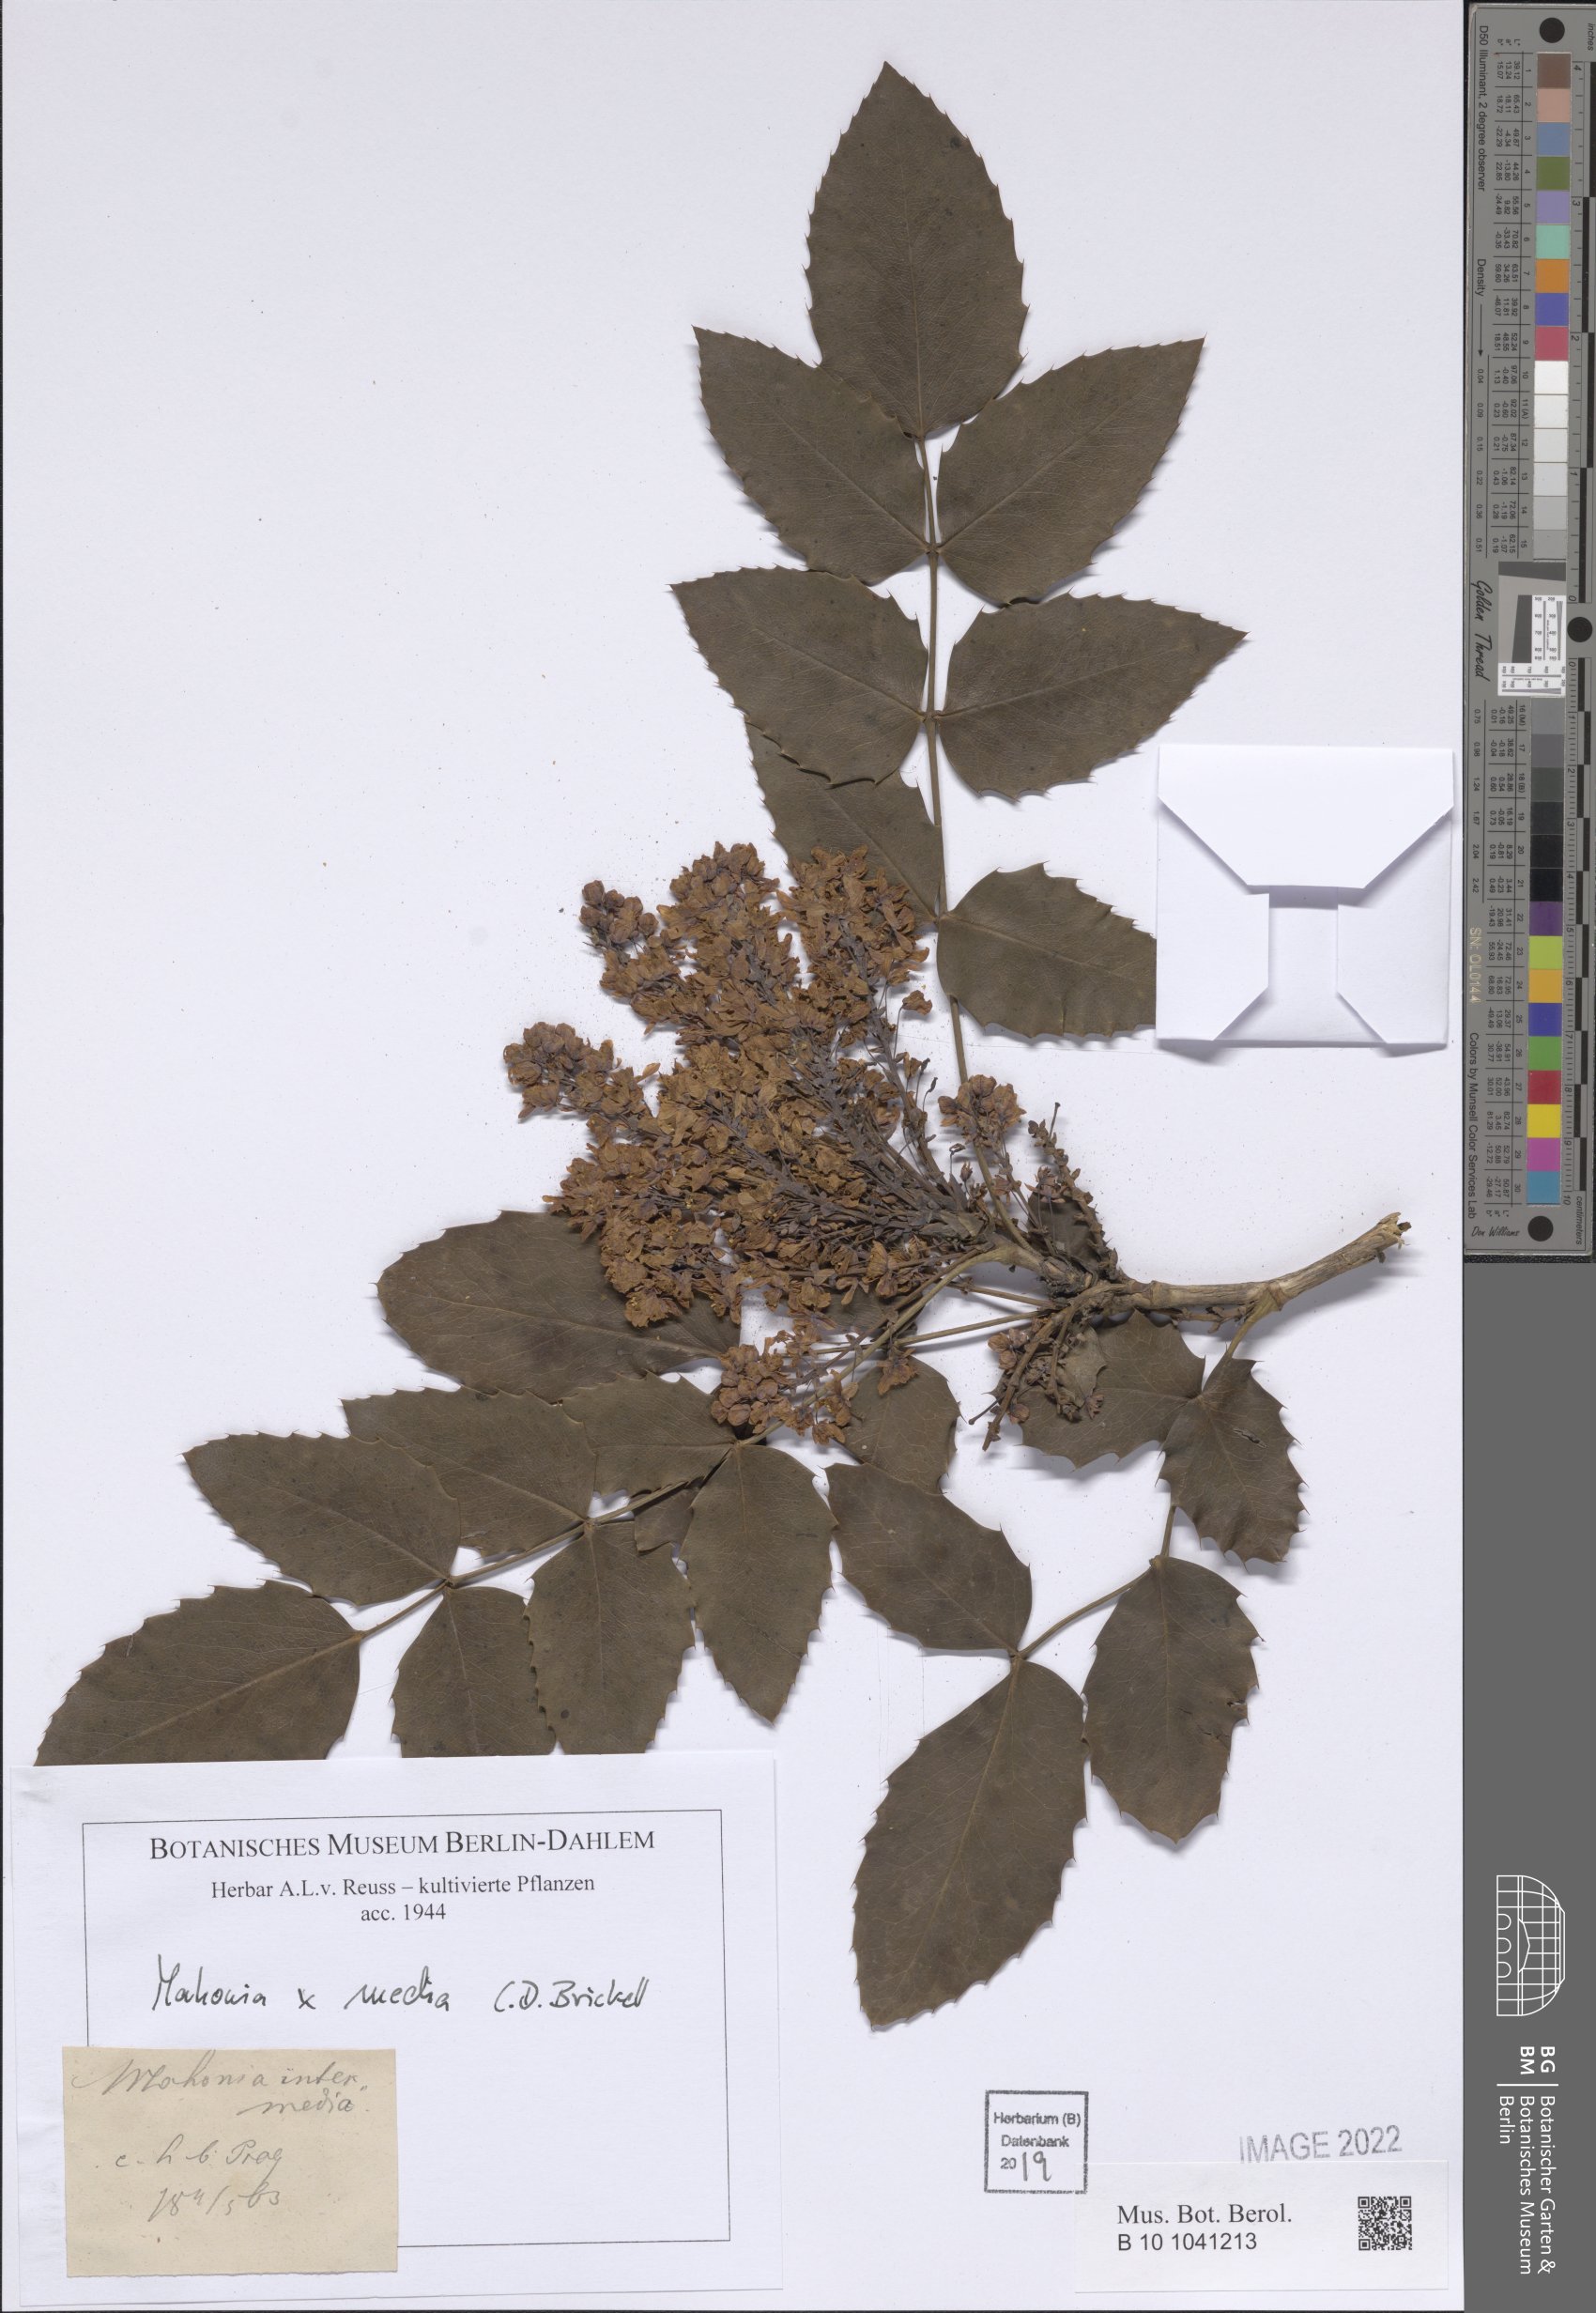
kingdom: Plantae
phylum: Tracheophyta
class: Magnoliopsida
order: Ranunculales
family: Berberidaceae
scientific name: Berberidaceae
